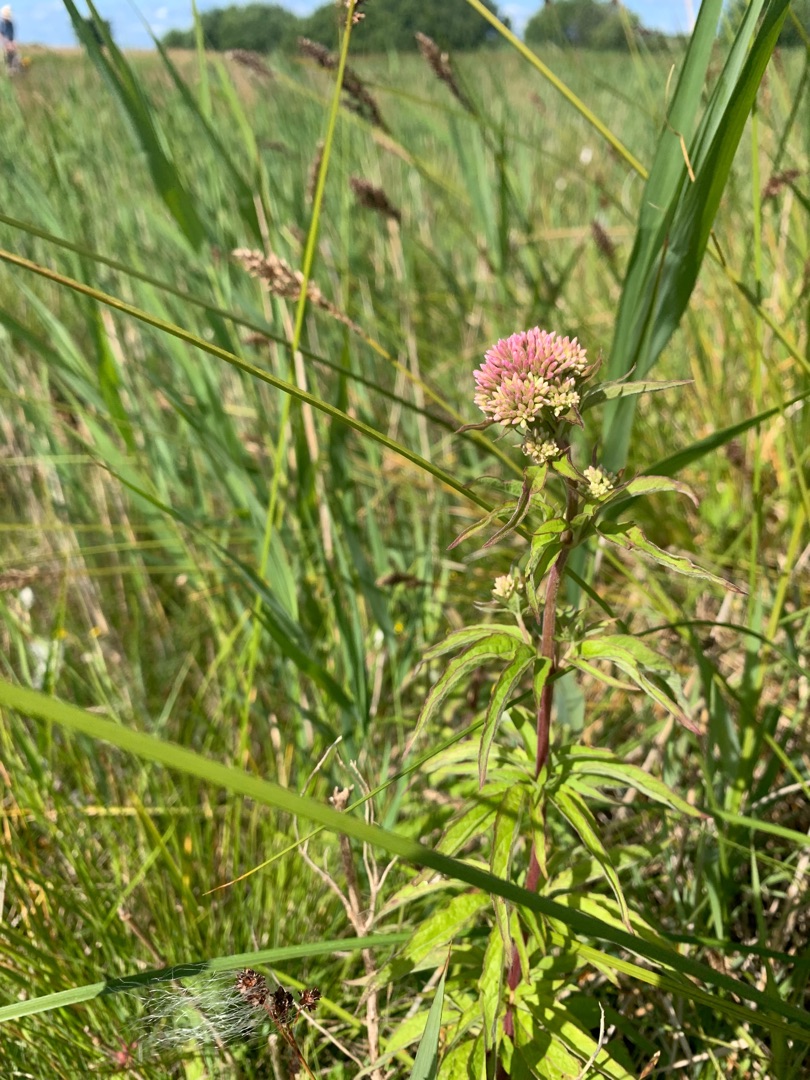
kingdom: Plantae
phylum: Tracheophyta
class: Magnoliopsida
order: Asterales
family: Asteraceae
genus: Eupatorium
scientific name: Eupatorium cannabinum
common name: Hjortetrøst
